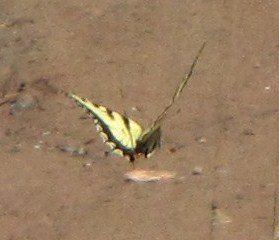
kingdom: Animalia
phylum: Arthropoda
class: Insecta
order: Lepidoptera
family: Papilionidae
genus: Pterourus
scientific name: Pterourus canadensis
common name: Canadian Tiger Swallowtail
